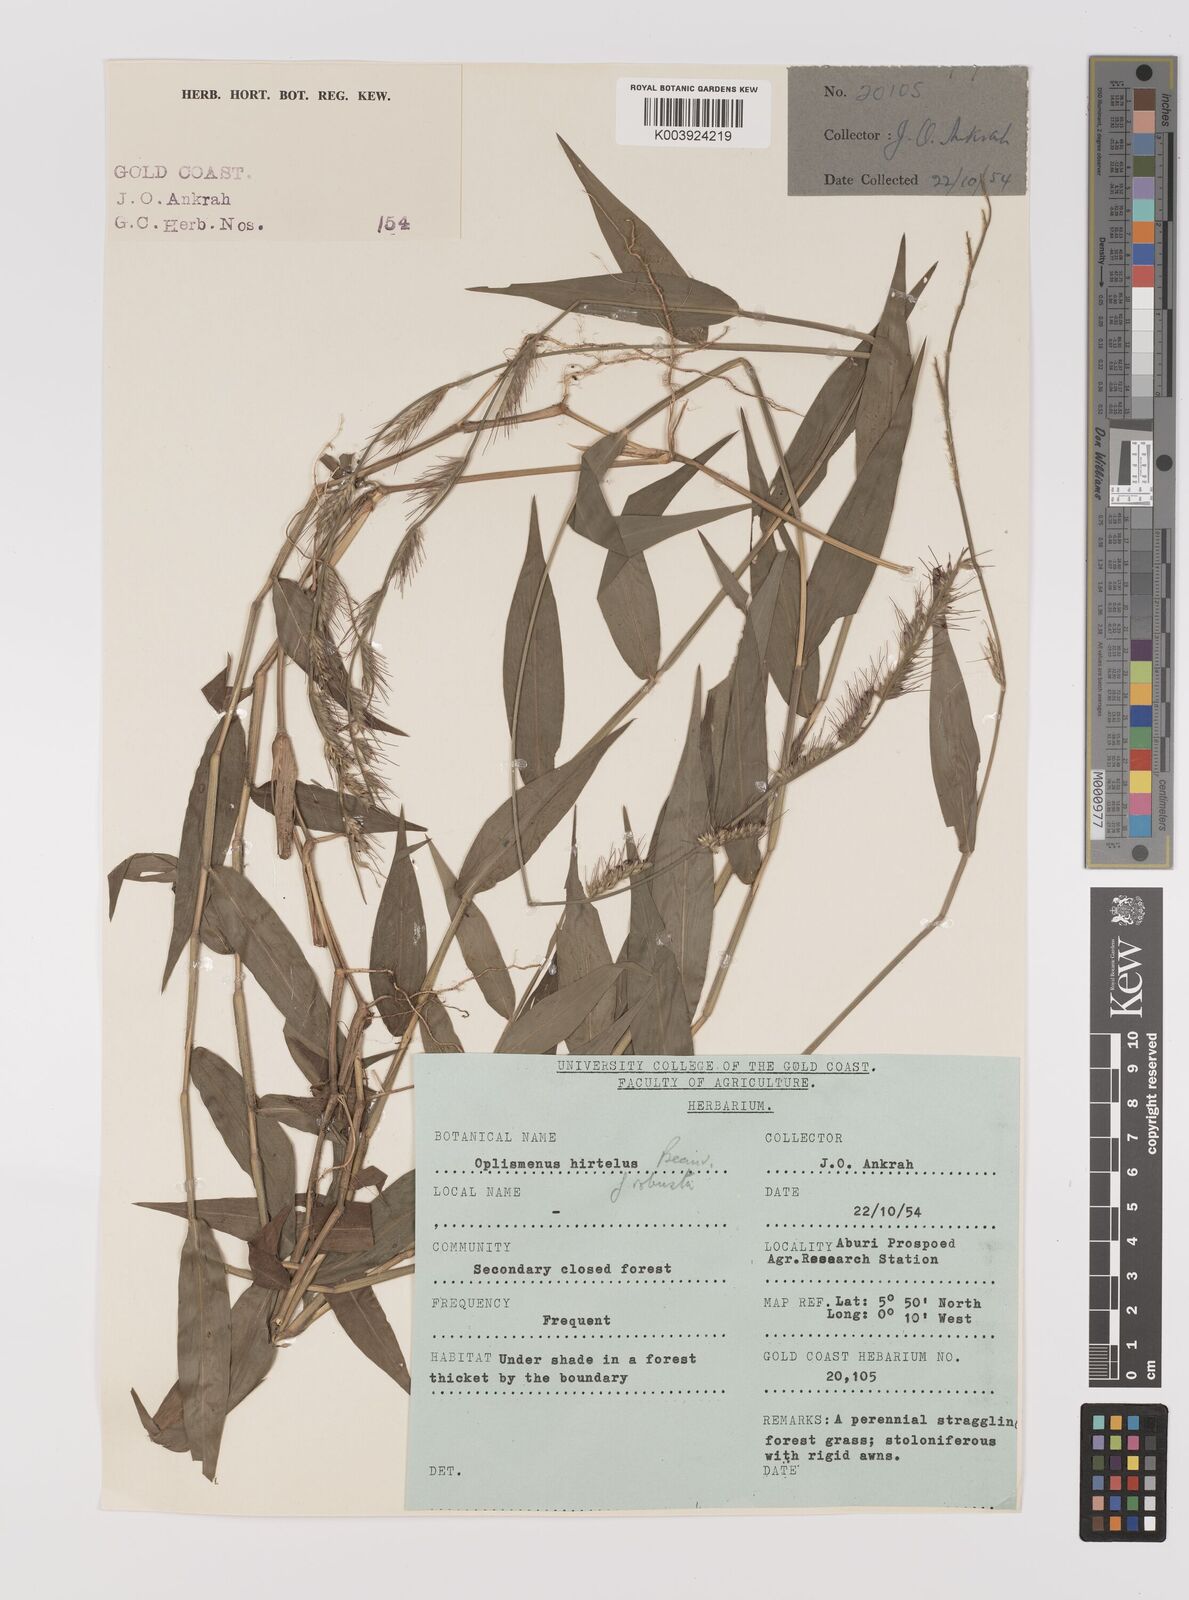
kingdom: Plantae
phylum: Tracheophyta
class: Liliopsida
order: Poales
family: Poaceae
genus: Oplismenus
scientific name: Oplismenus hirtellus
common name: Basketgrass
